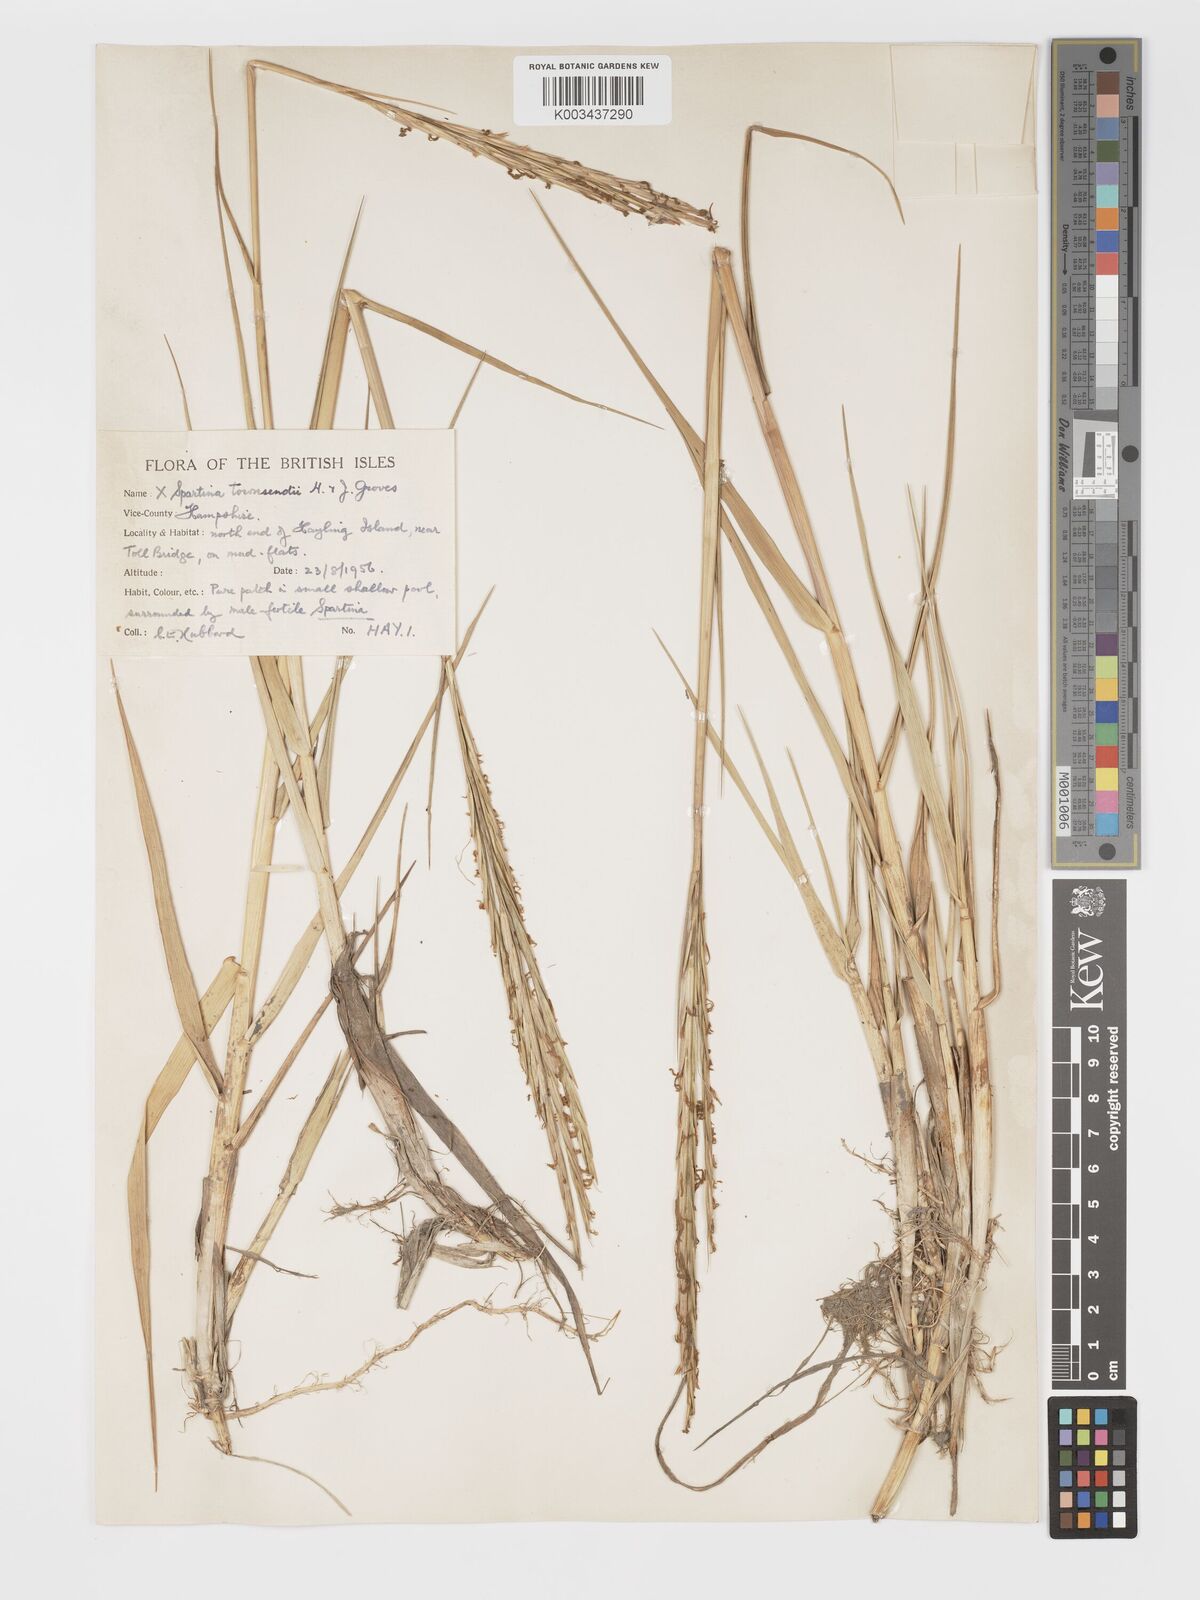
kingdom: Plantae
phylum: Tracheophyta
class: Liliopsida
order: Poales
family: Poaceae
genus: Sporobolus
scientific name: Sporobolus townsendii
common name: Townsend's cordgrass
